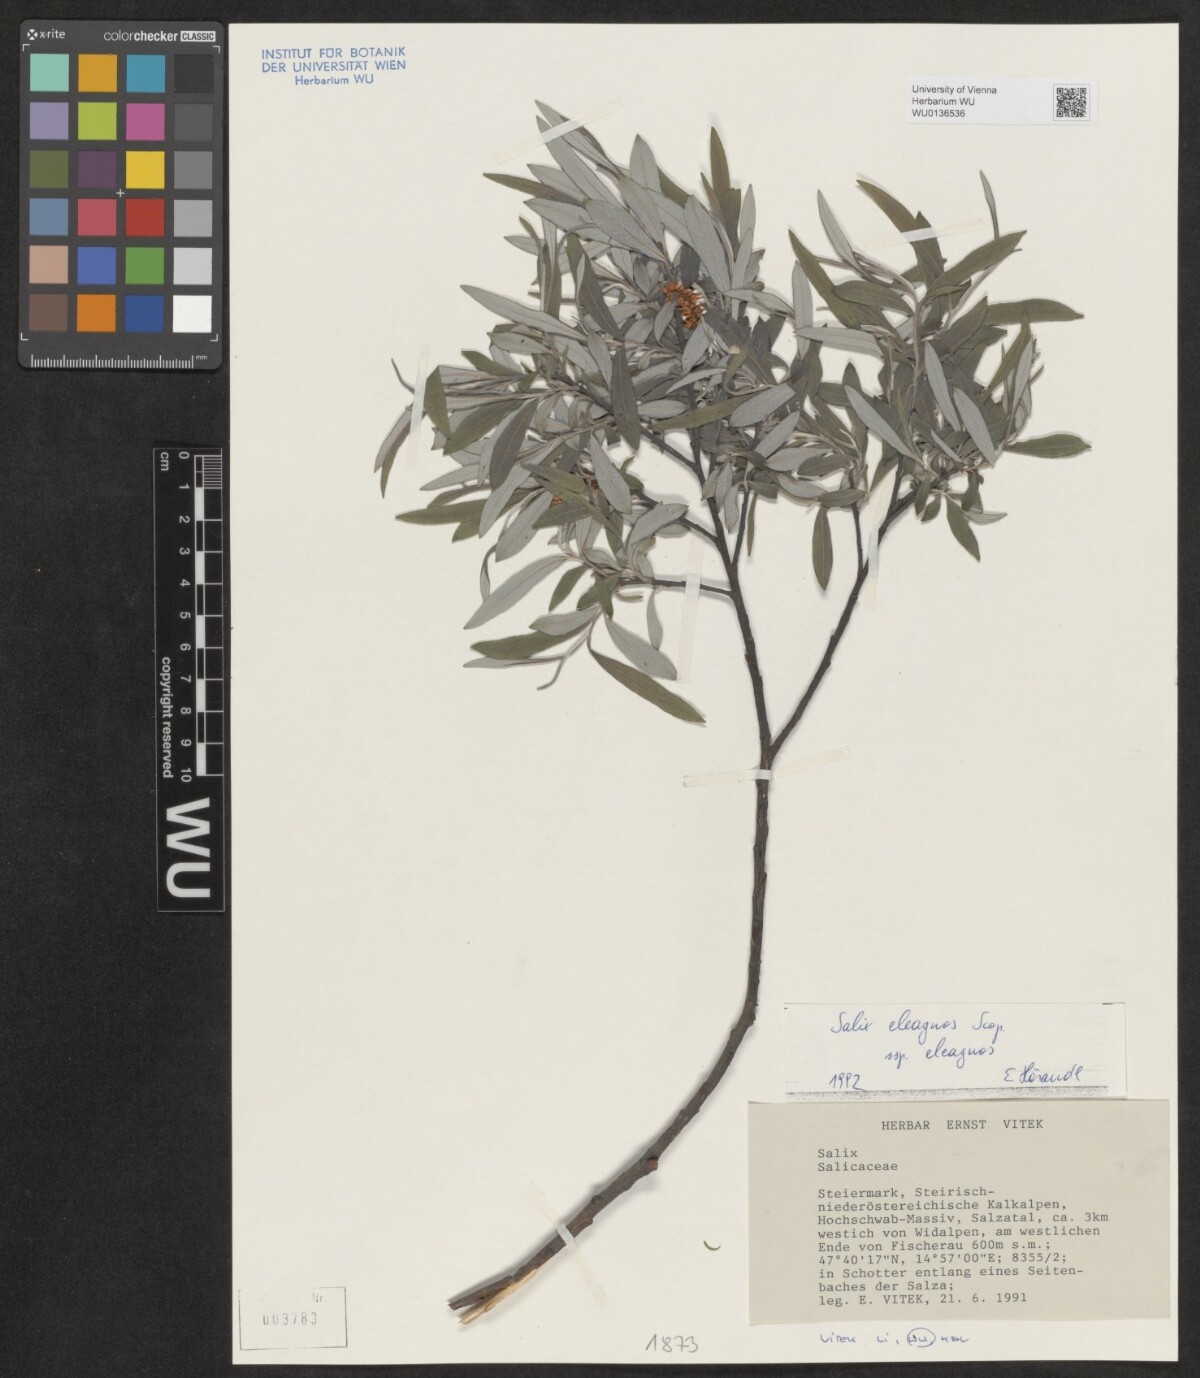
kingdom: Plantae
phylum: Tracheophyta
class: Magnoliopsida
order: Malpighiales
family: Salicaceae
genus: Salix
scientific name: Salix eleagnos
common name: Elaeagnus willow
